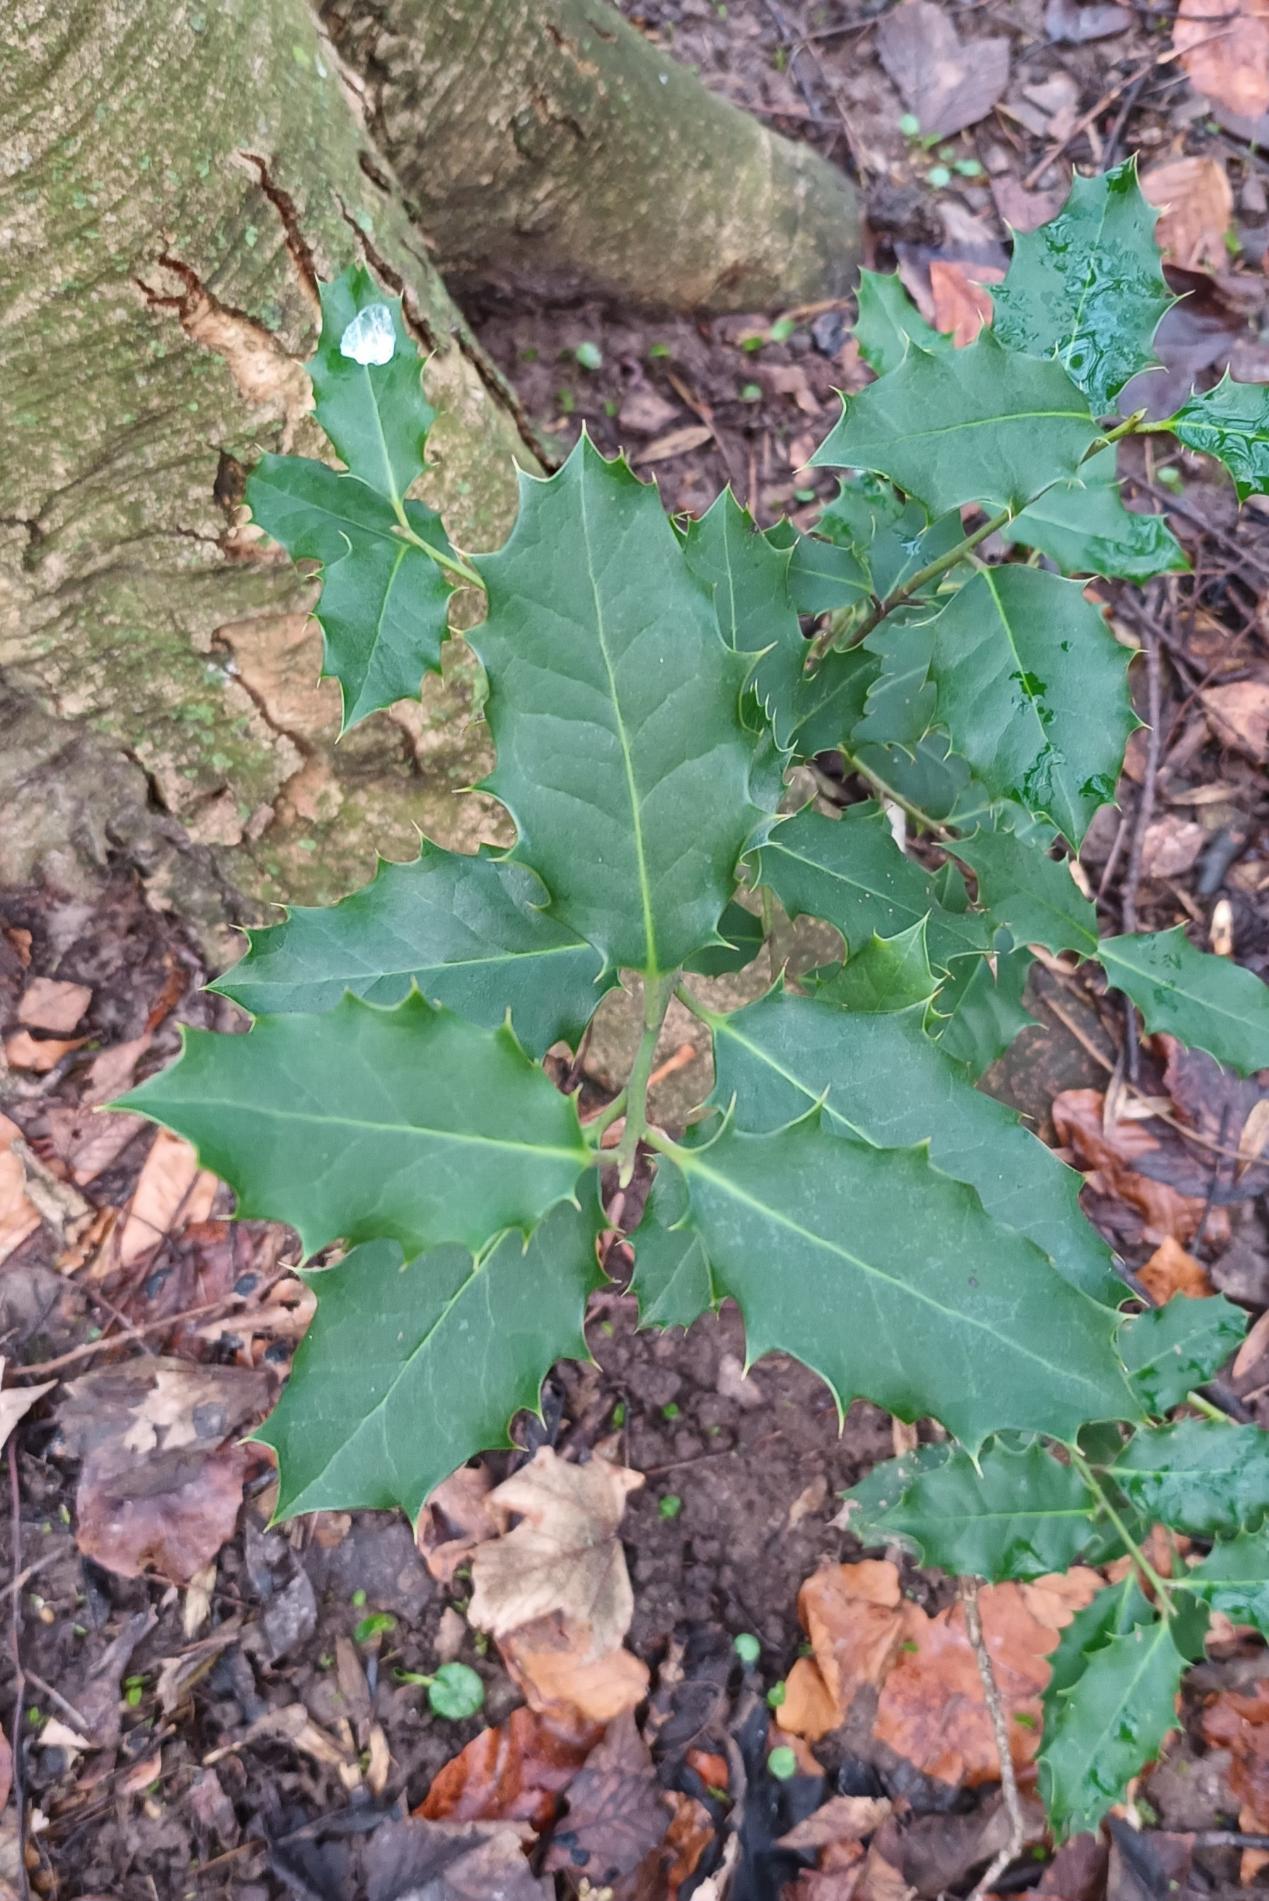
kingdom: Plantae
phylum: Tracheophyta
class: Magnoliopsida
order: Aquifoliales
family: Aquifoliaceae
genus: Ilex
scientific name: Ilex aquifolium
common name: Kristtorn
